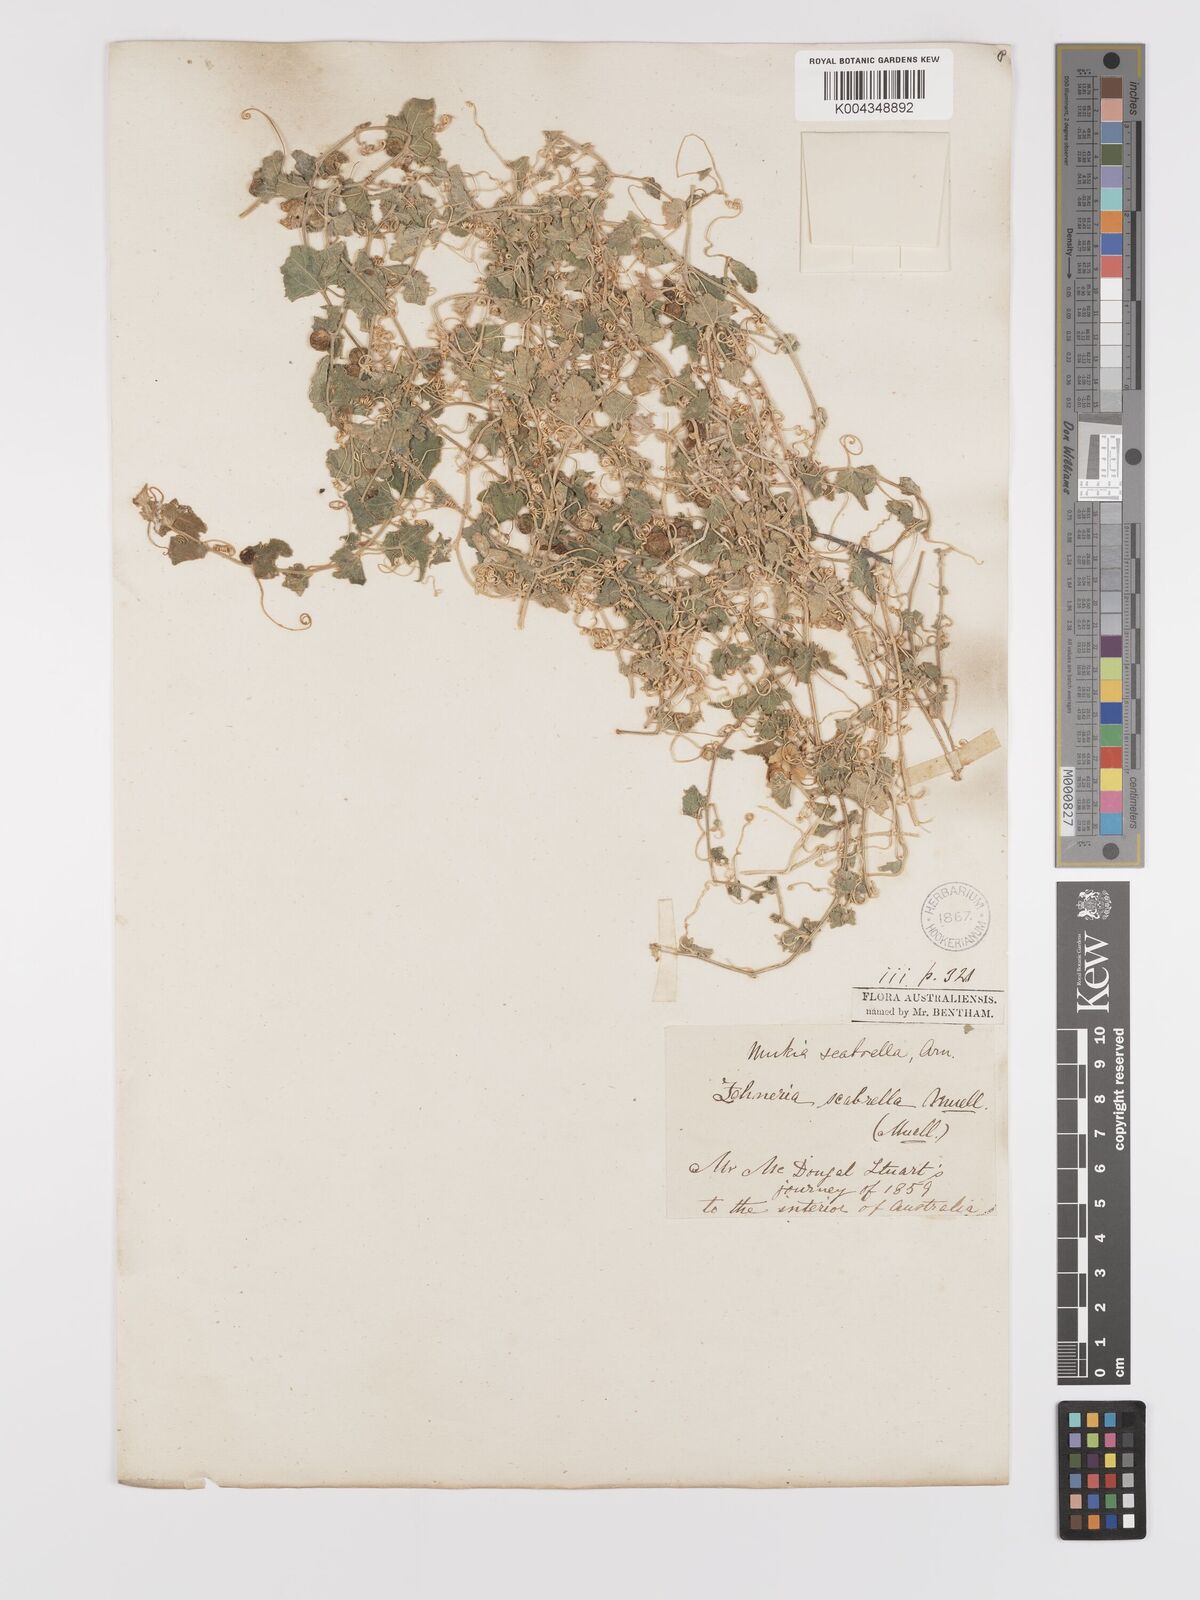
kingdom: Animalia
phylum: Arthropoda
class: Insecta
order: Lepidoptera
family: Crambidae
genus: Mukia
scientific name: Mukia
